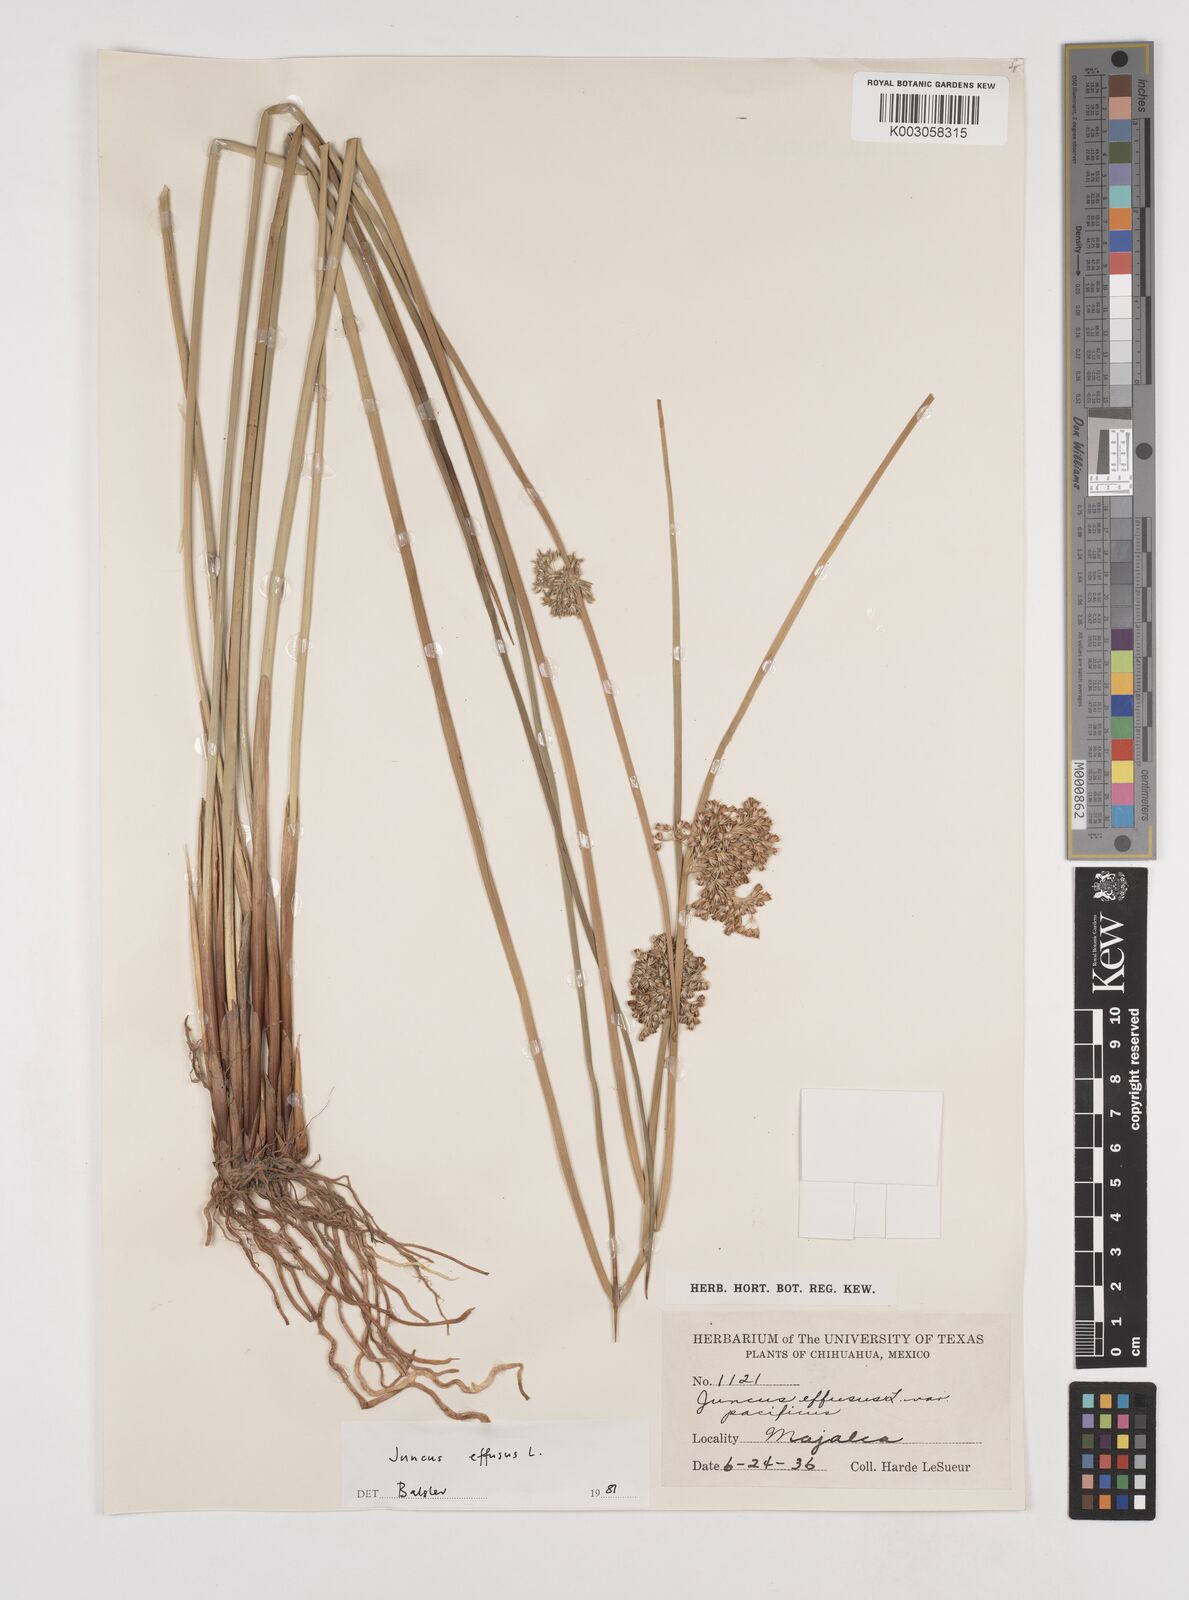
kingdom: Plantae
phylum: Tracheophyta
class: Liliopsida
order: Poales
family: Juncaceae
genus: Juncus
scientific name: Juncus effusus
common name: Soft rush
